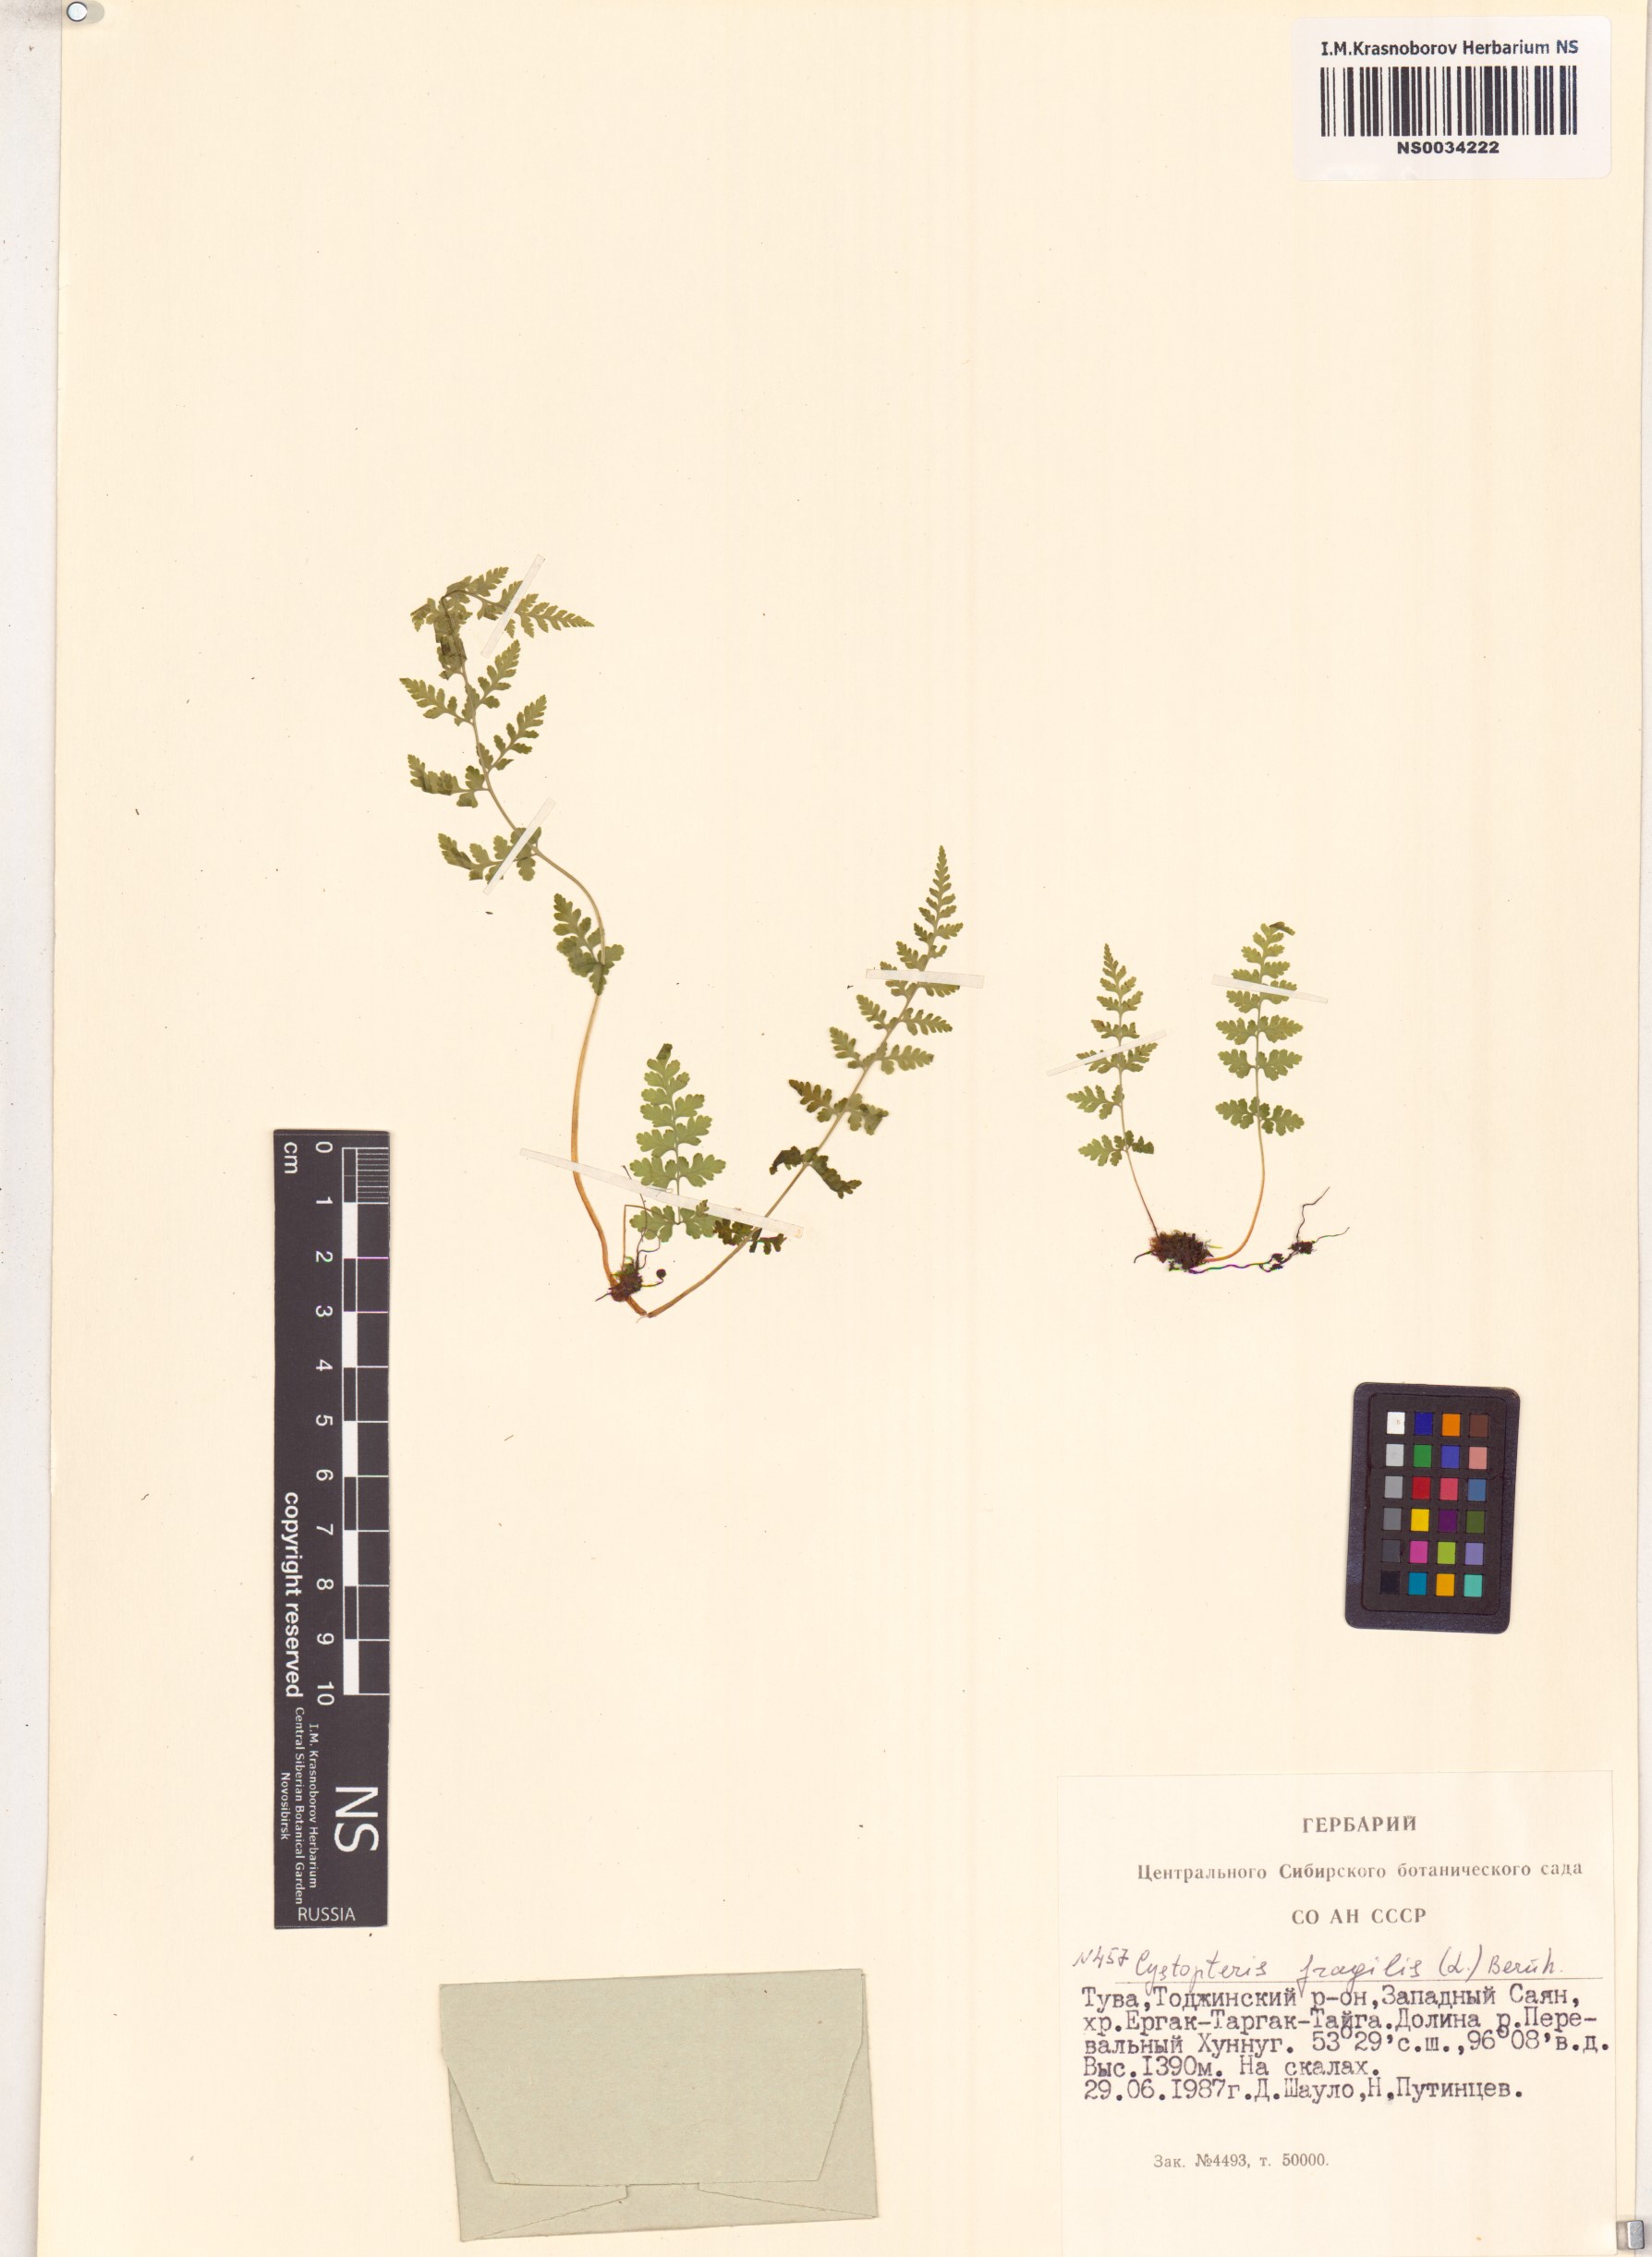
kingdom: Plantae
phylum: Tracheophyta
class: Polypodiopsida
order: Polypodiales
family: Cystopteridaceae
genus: Cystopteris
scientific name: Cystopteris fragilis
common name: Brittle bladder fern
